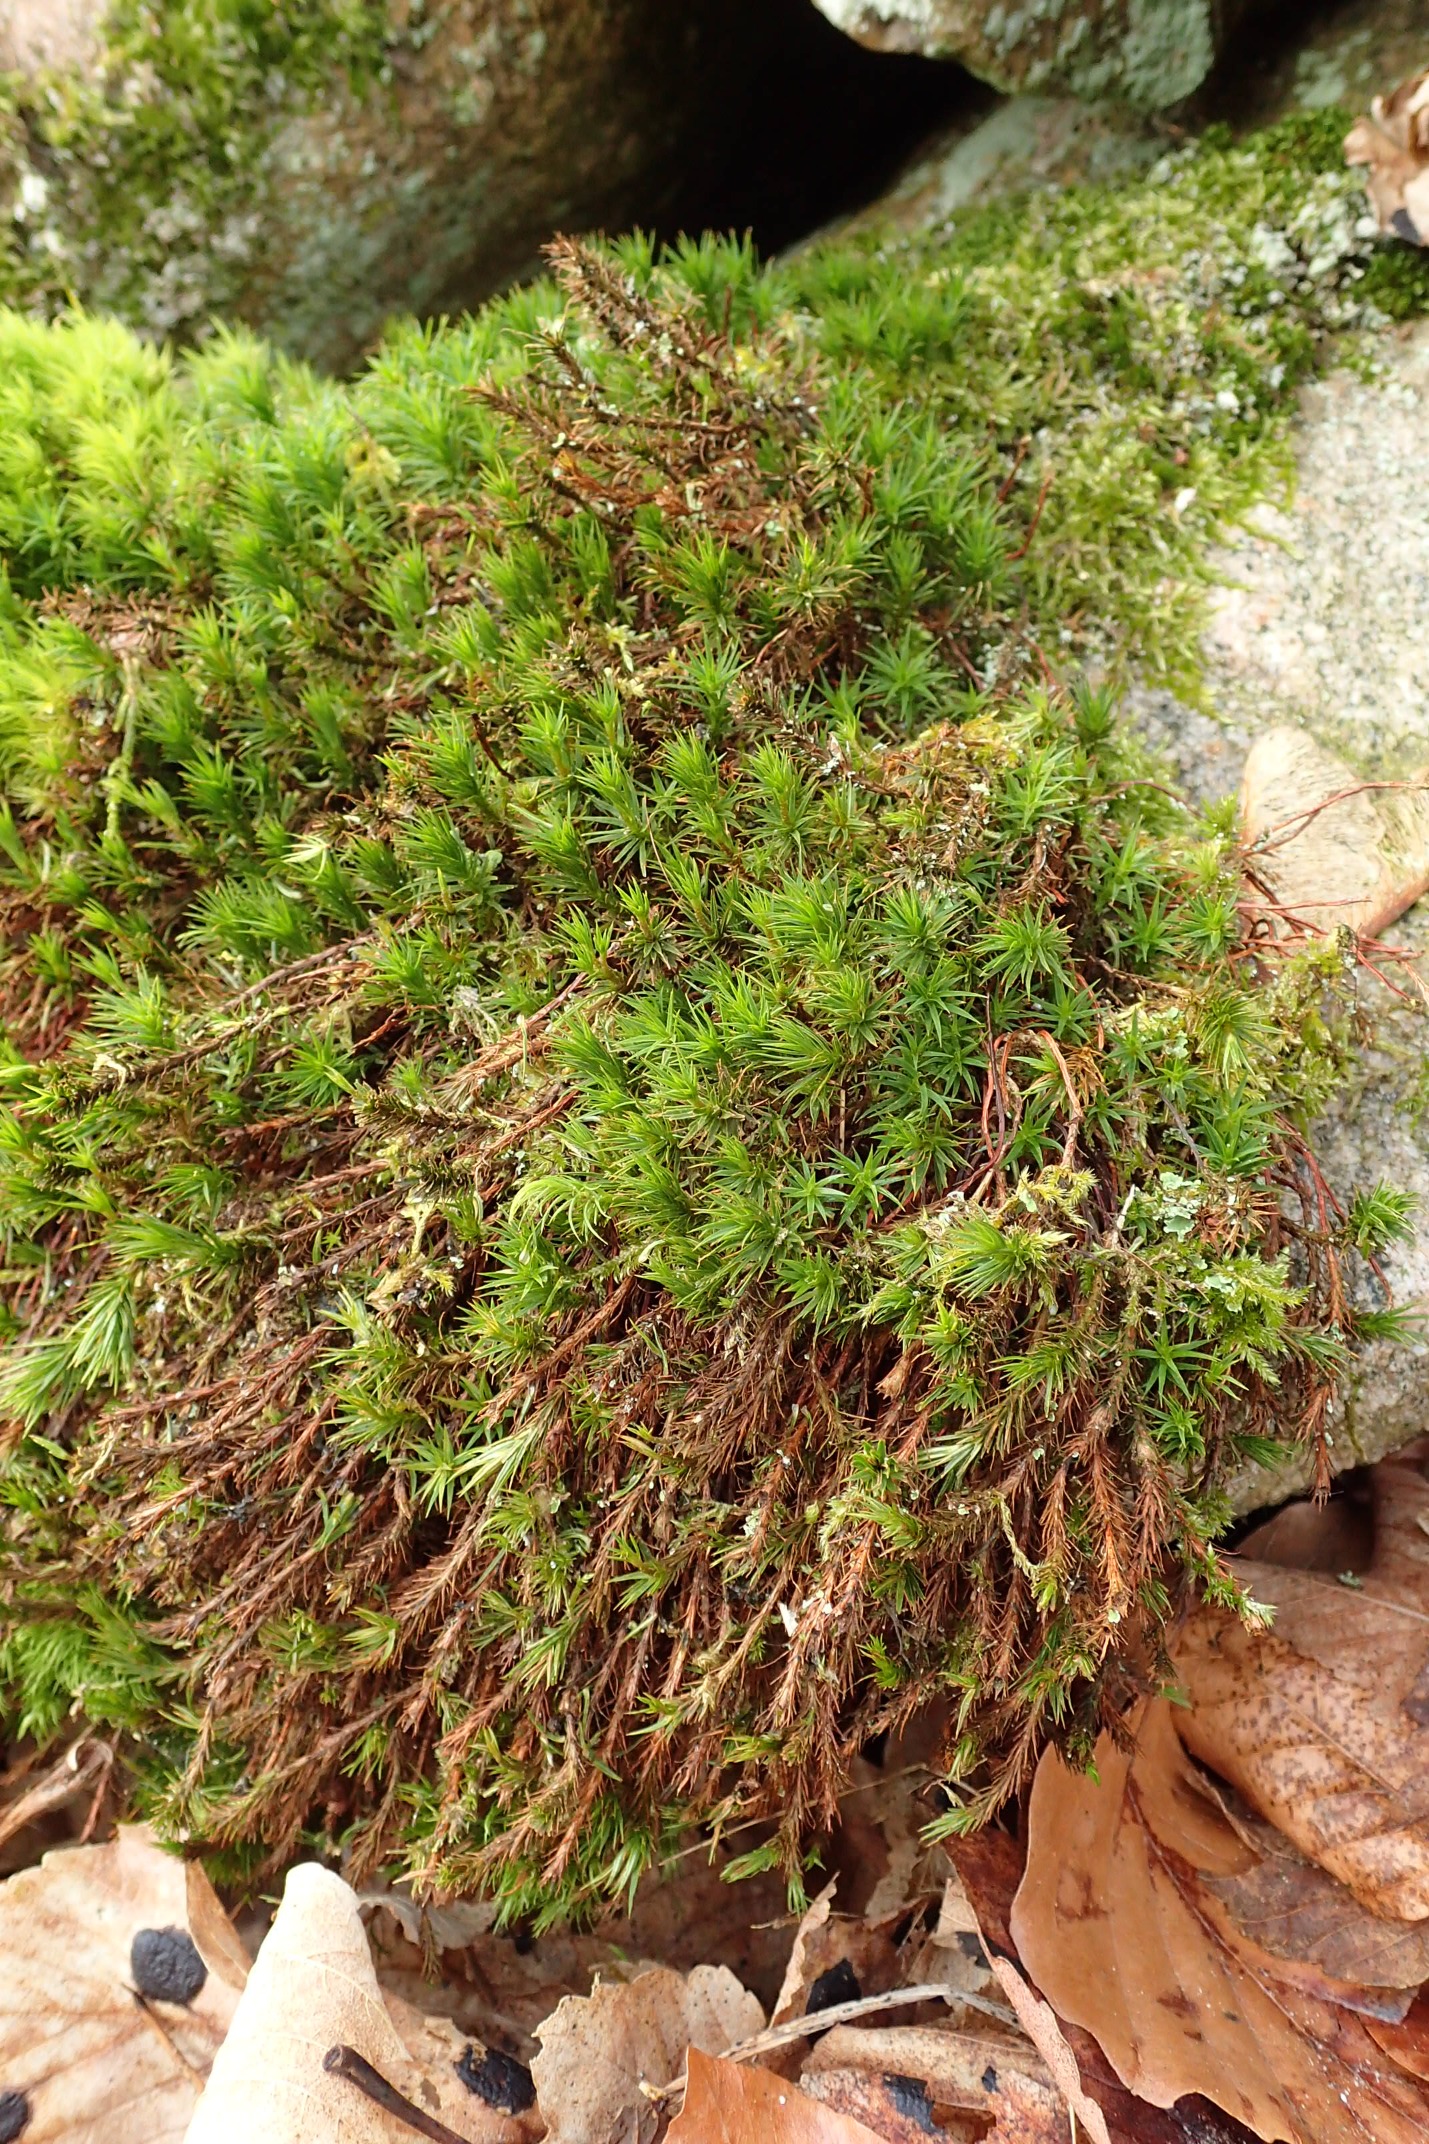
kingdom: Plantae
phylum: Bryophyta
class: Polytrichopsida
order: Polytrichales
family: Polytrichaceae
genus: Polytrichum
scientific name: Polytrichum formosum
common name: Skov-jomfruhår
